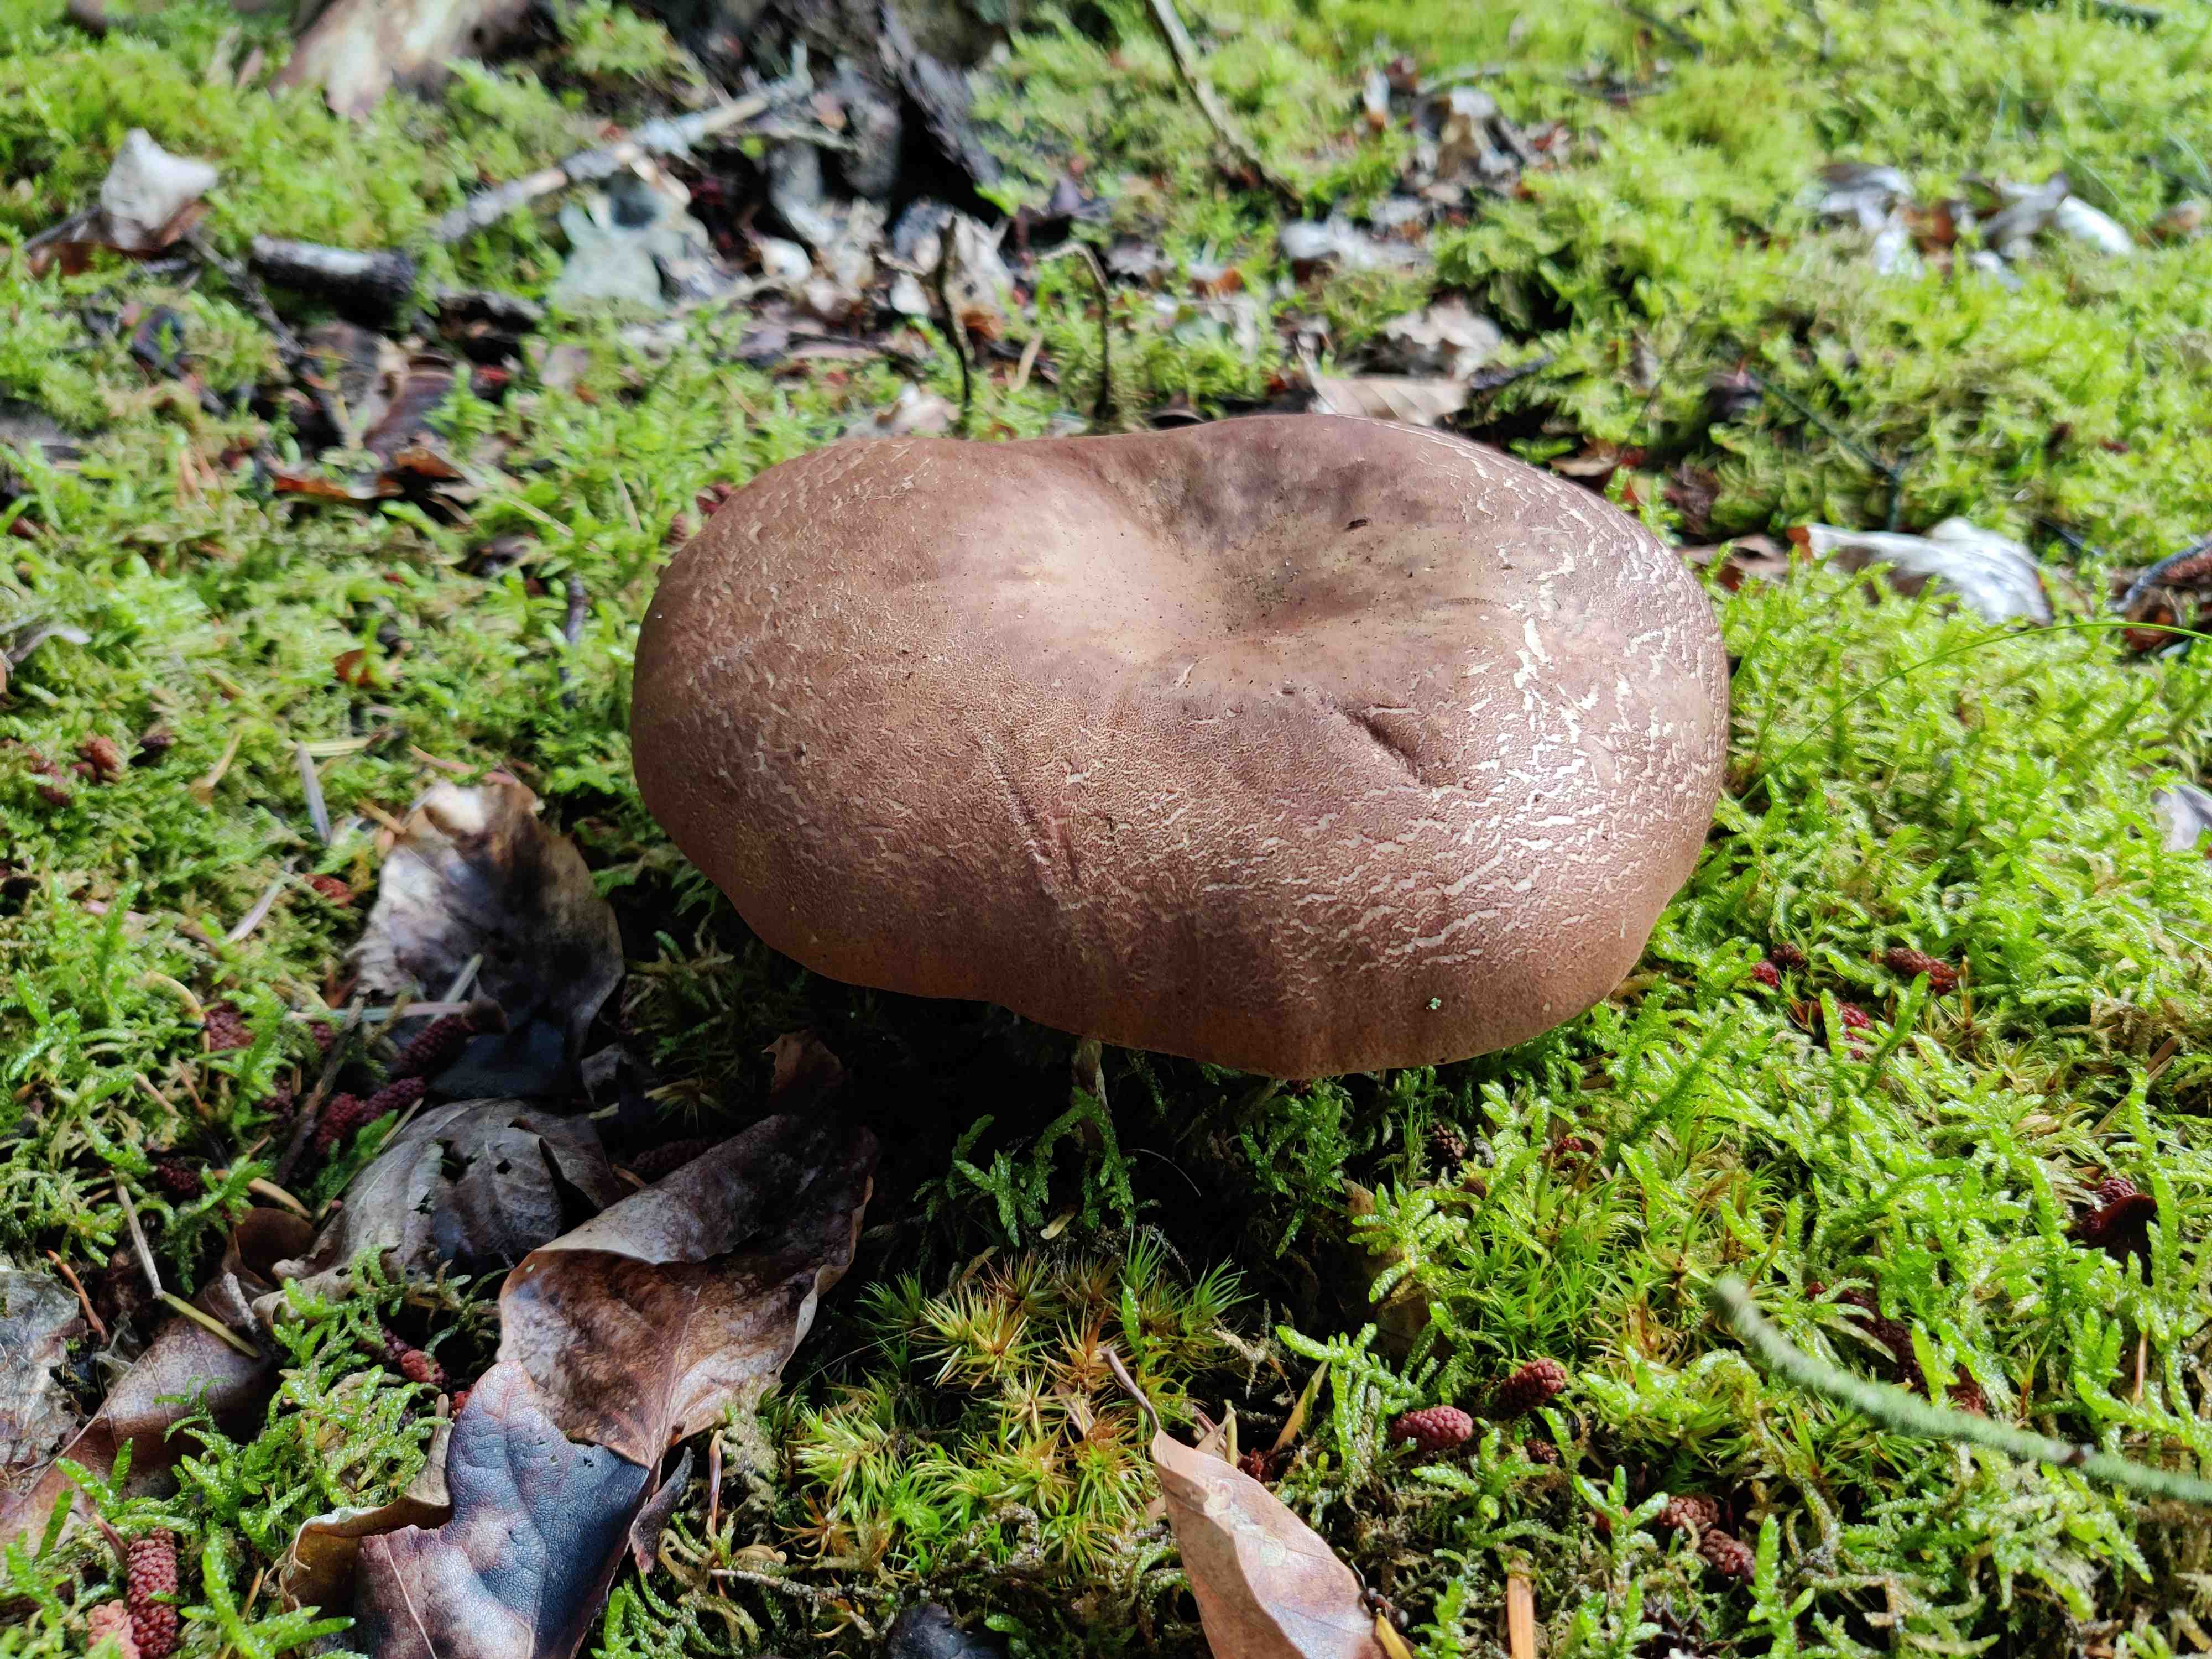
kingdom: Plantae
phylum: Bryophyta
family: Agaricomycetidae
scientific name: Agaricomycetidae
